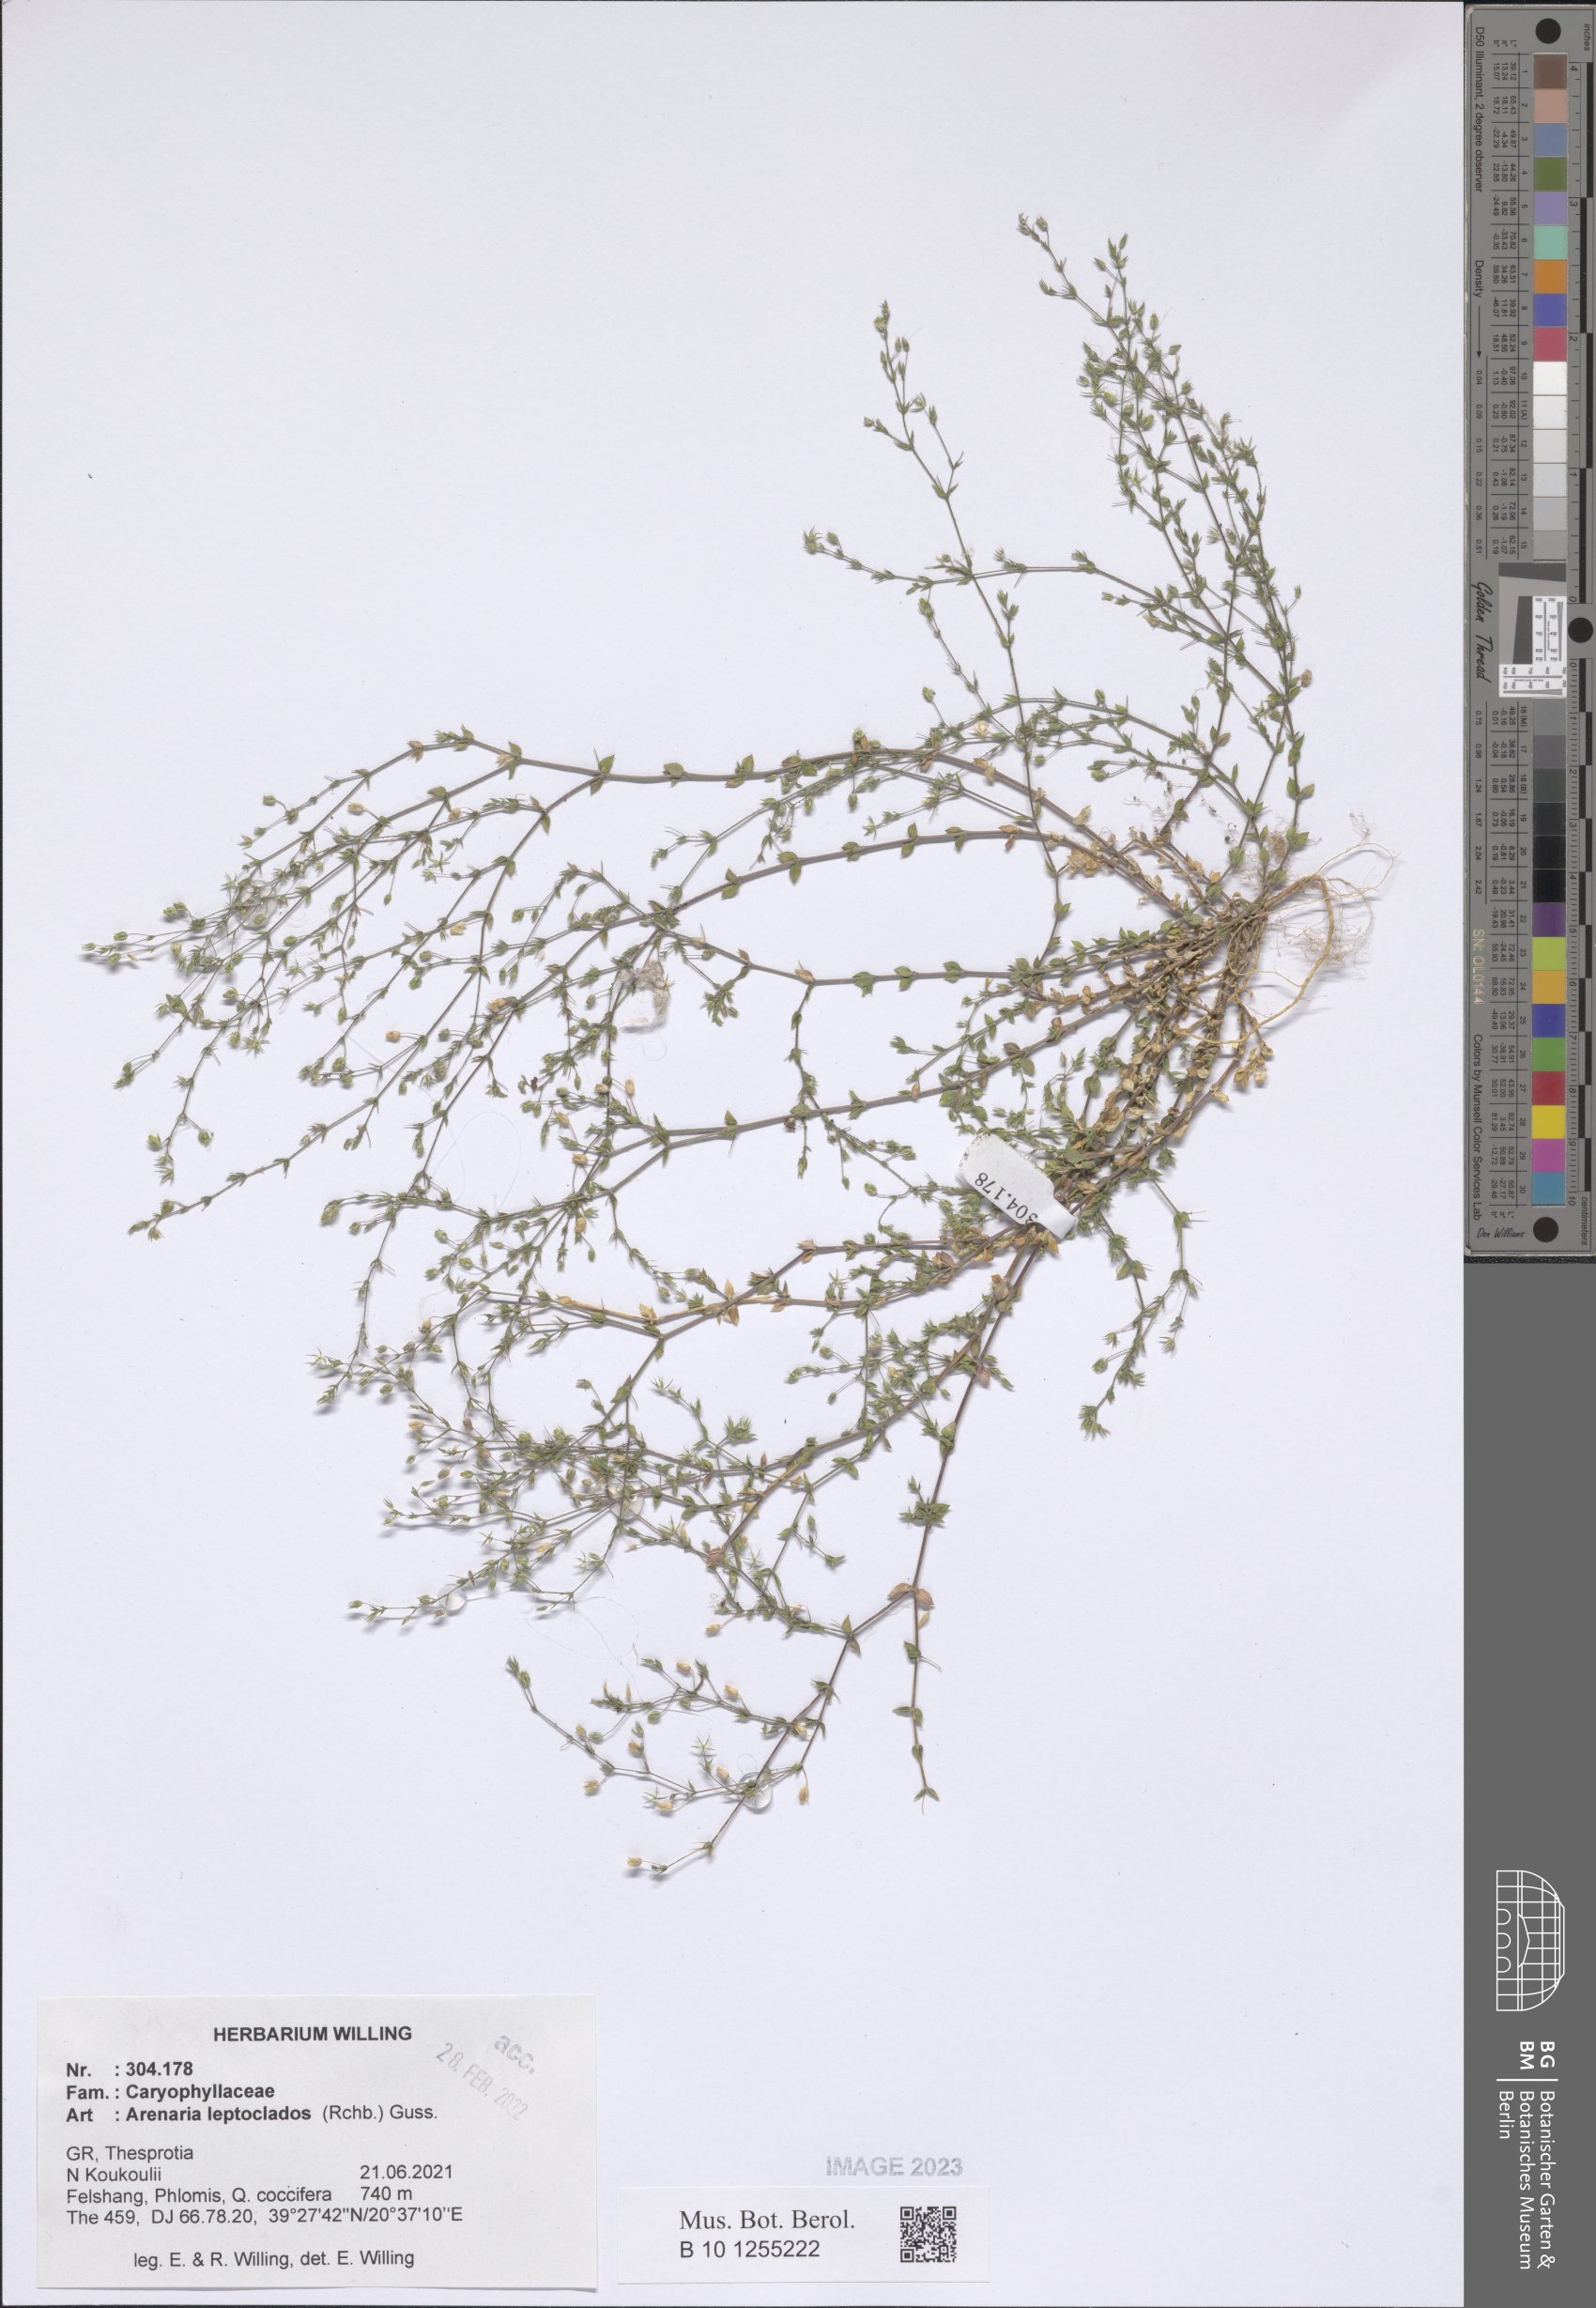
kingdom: Plantae
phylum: Tracheophyta
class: Magnoliopsida
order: Caryophyllales
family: Caryophyllaceae
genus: Arenaria
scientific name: Arenaria leptoclados
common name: Thyme-leaved sandwort
